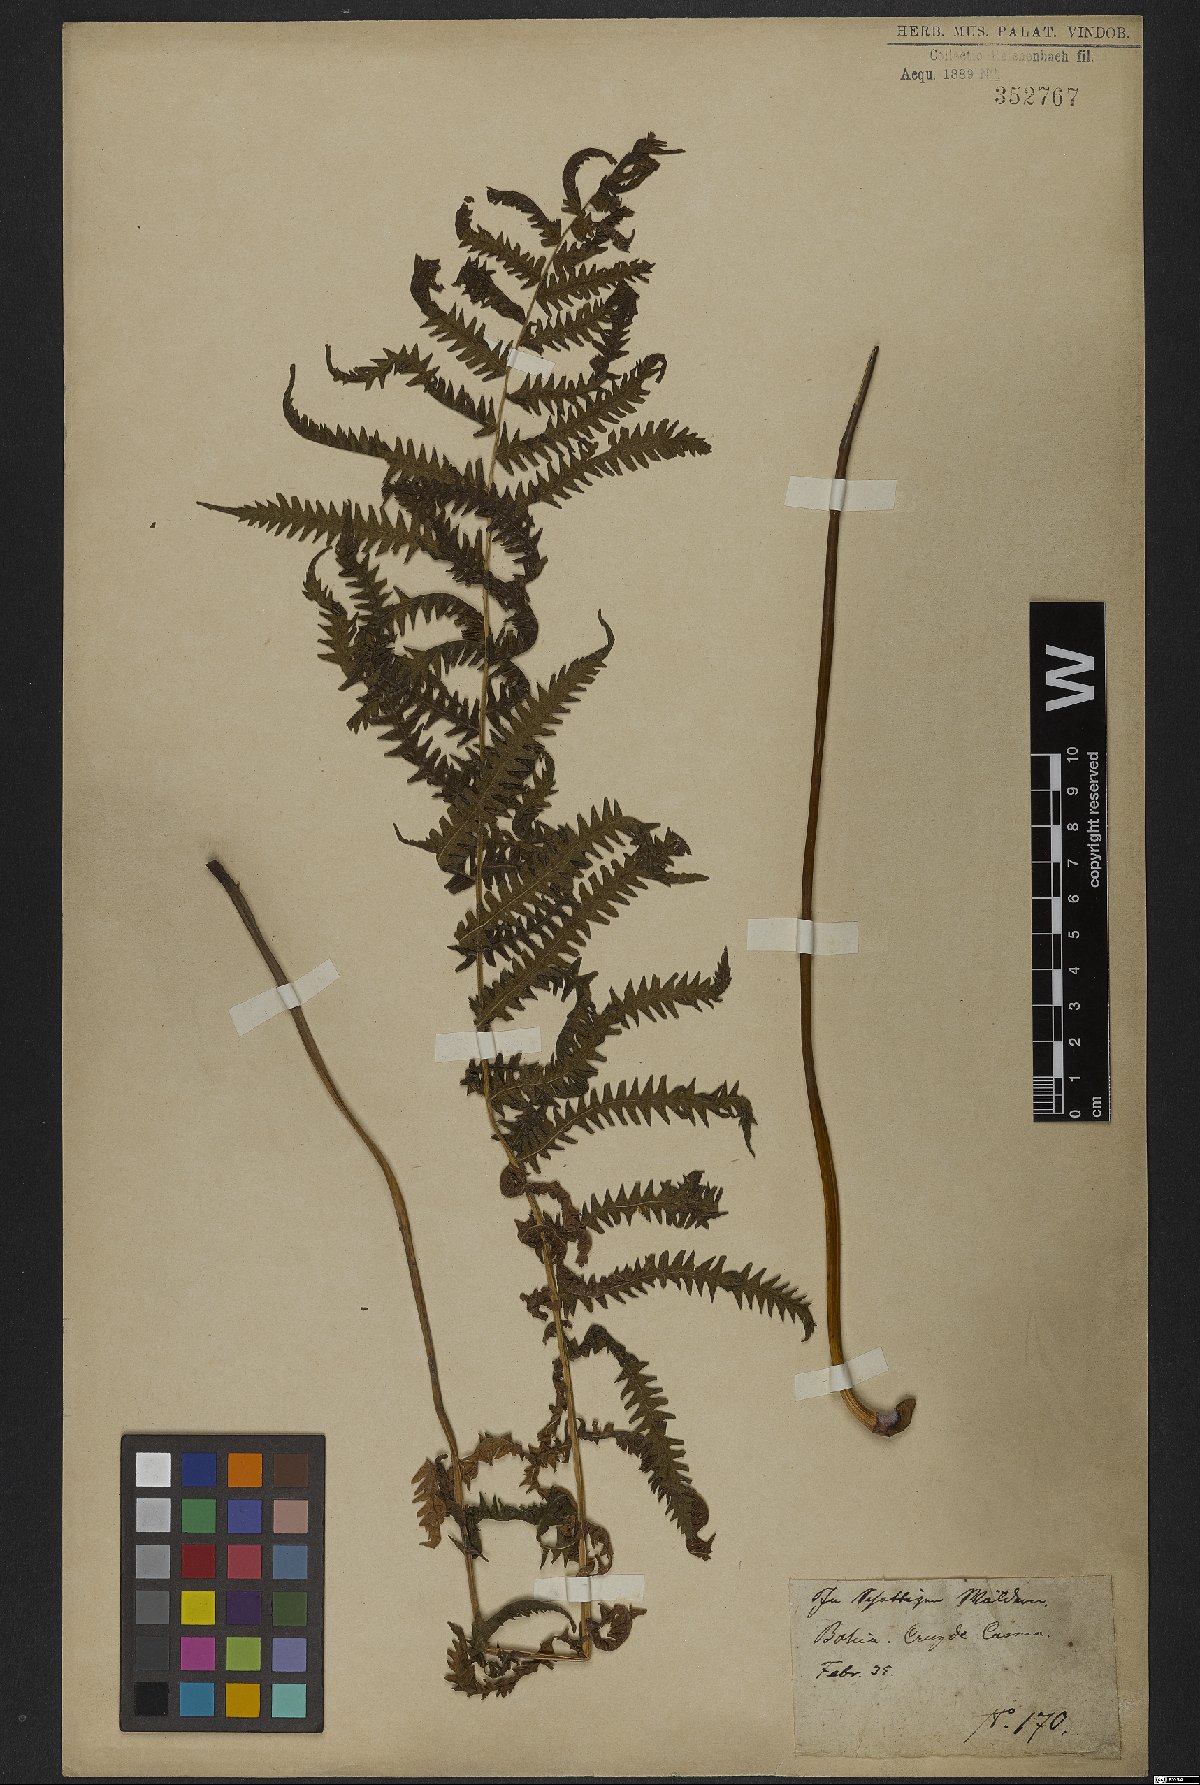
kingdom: Plantae
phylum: Tracheophyta
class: Polypodiopsida
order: Polypodiales
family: Dryopteridaceae
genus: Dryopteris
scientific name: Dryopteris
